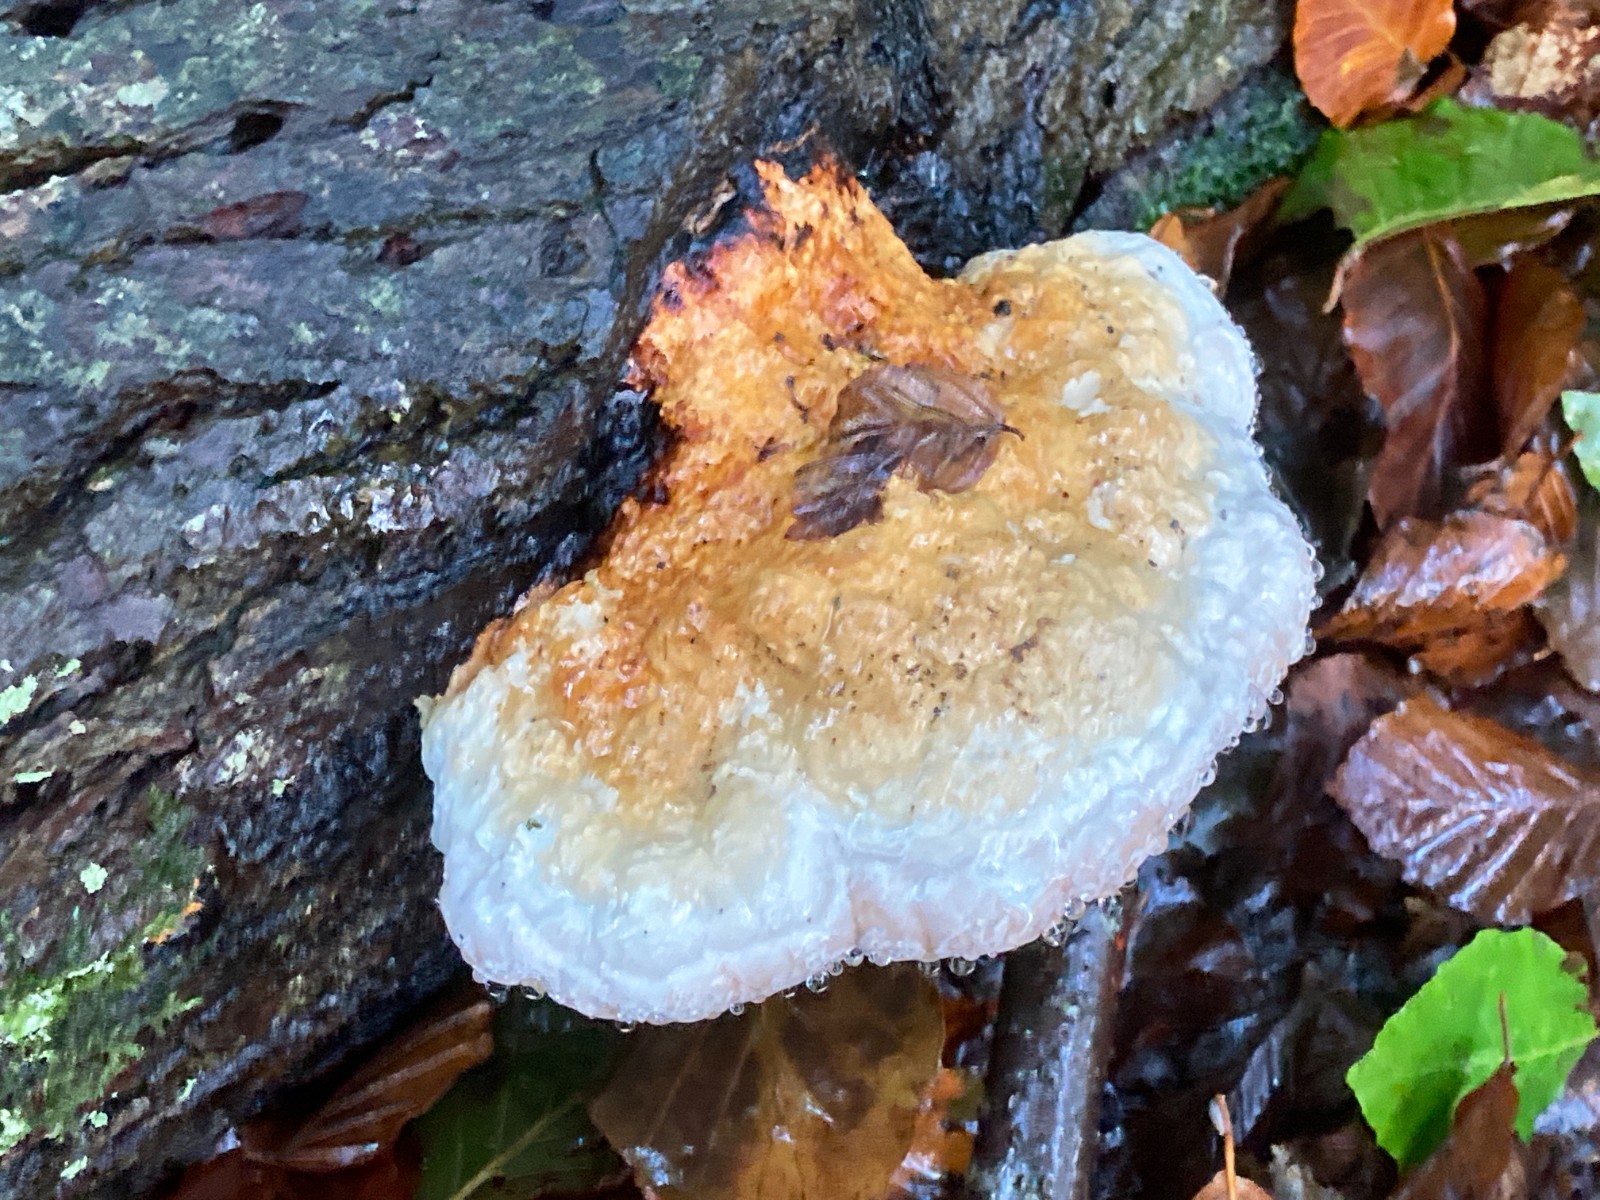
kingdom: Fungi
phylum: Basidiomycota
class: Agaricomycetes
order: Polyporales
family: Fomitopsidaceae
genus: Fomitopsis
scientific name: Fomitopsis pinicola
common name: randbæltet hovporesvamp
